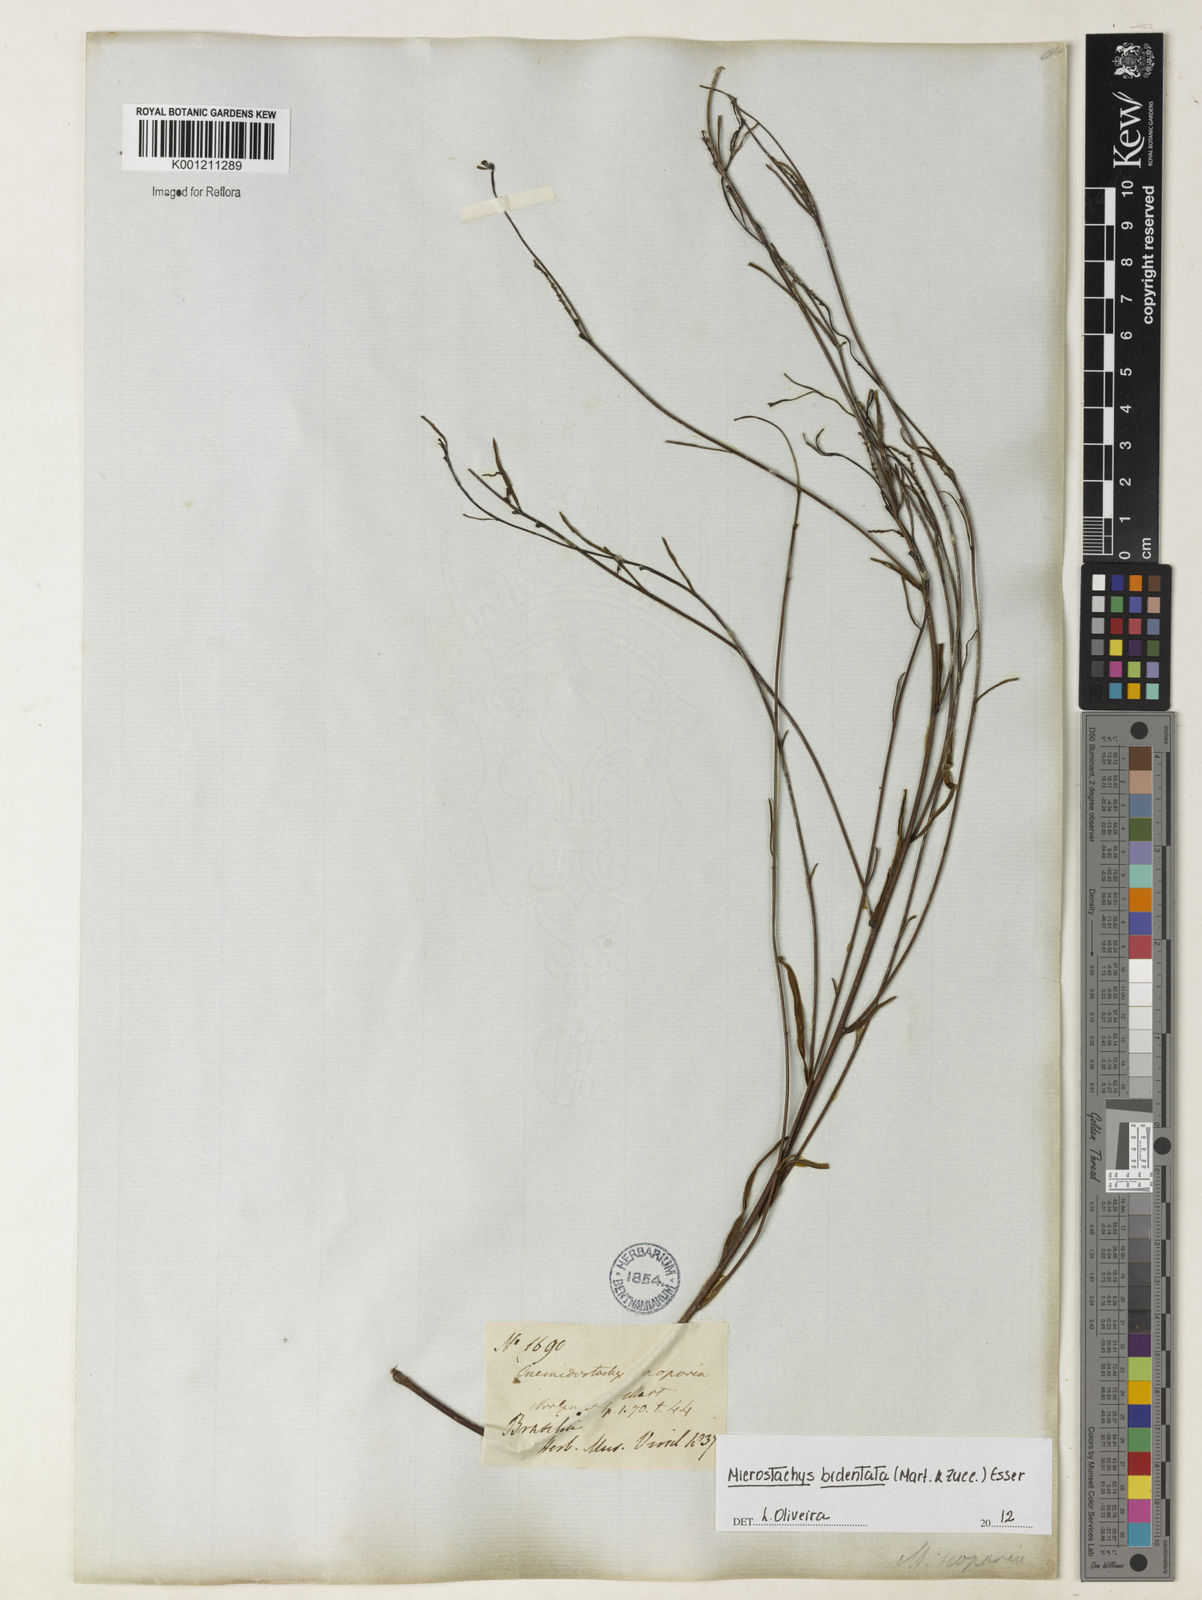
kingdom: Plantae
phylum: Tracheophyta
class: Magnoliopsida
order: Malpighiales
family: Euphorbiaceae
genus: Microstachys
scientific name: Microstachys bidentata
